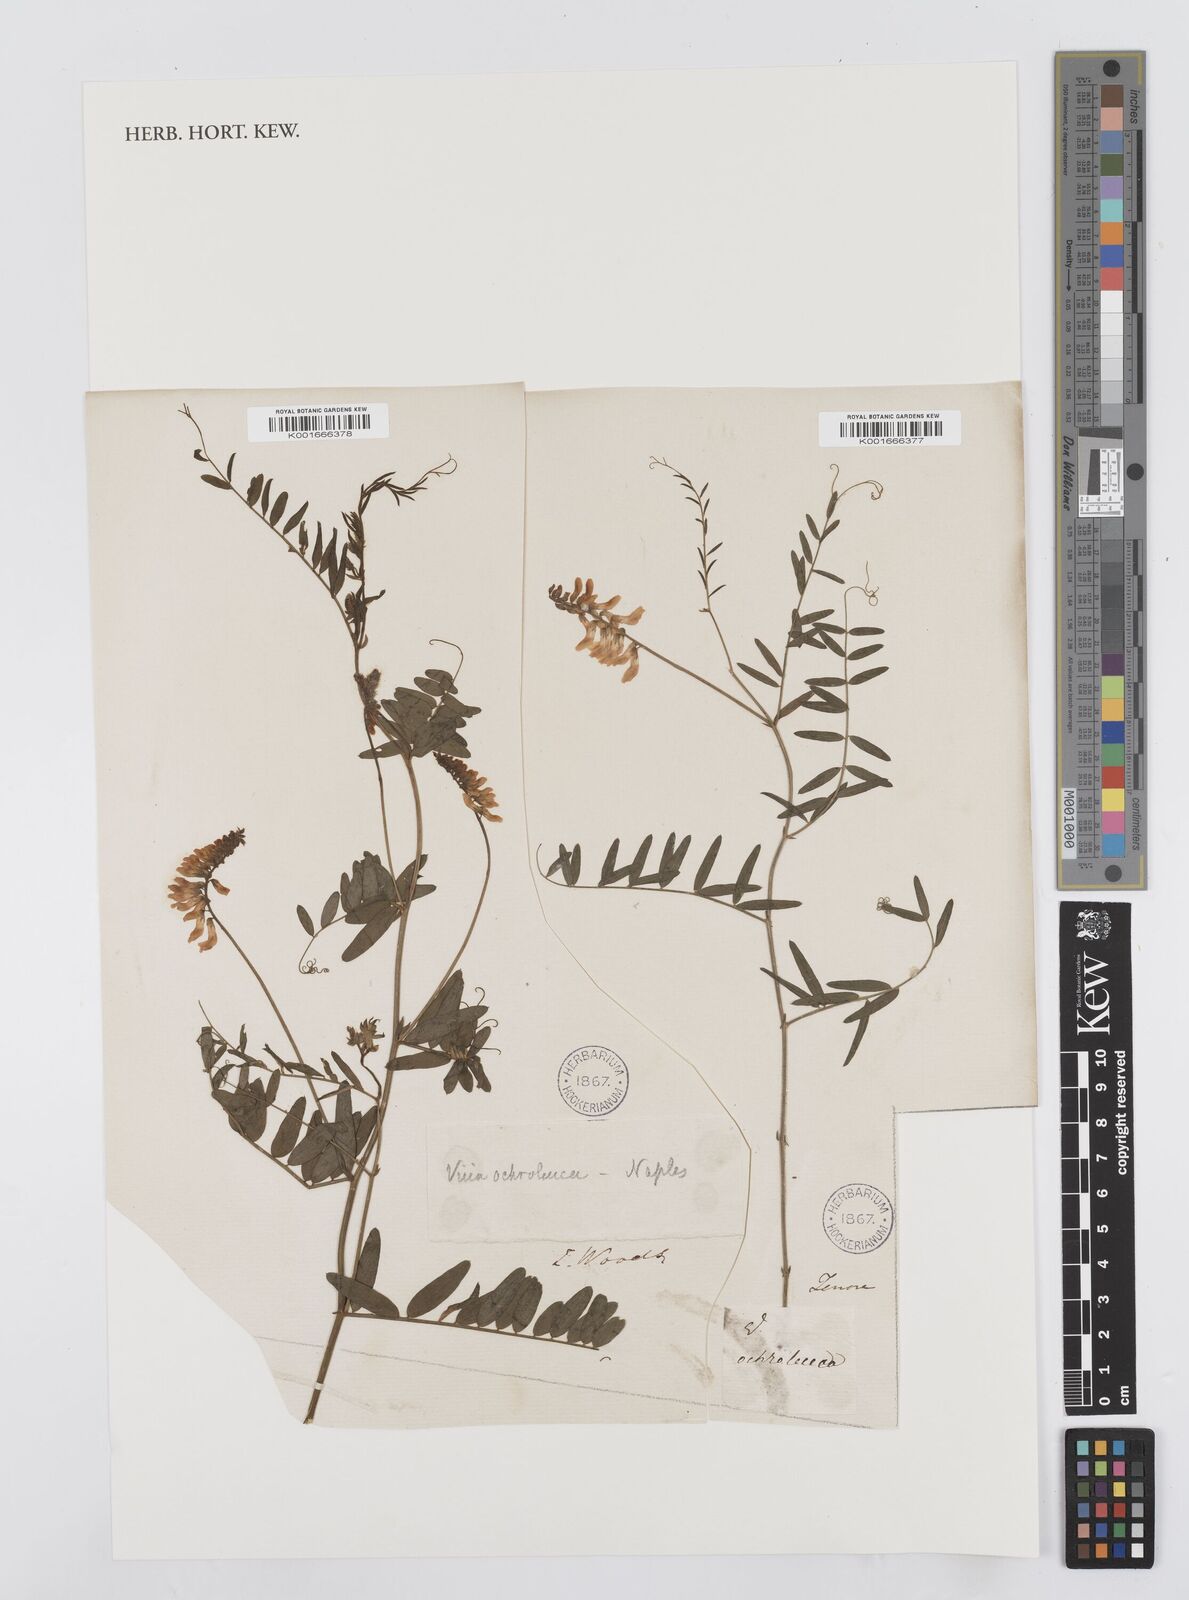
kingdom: Plantae
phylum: Tracheophyta
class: Magnoliopsida
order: Fabales
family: Fabaceae
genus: Vicia
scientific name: Vicia pisiformis
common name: Pale-flower vetch
